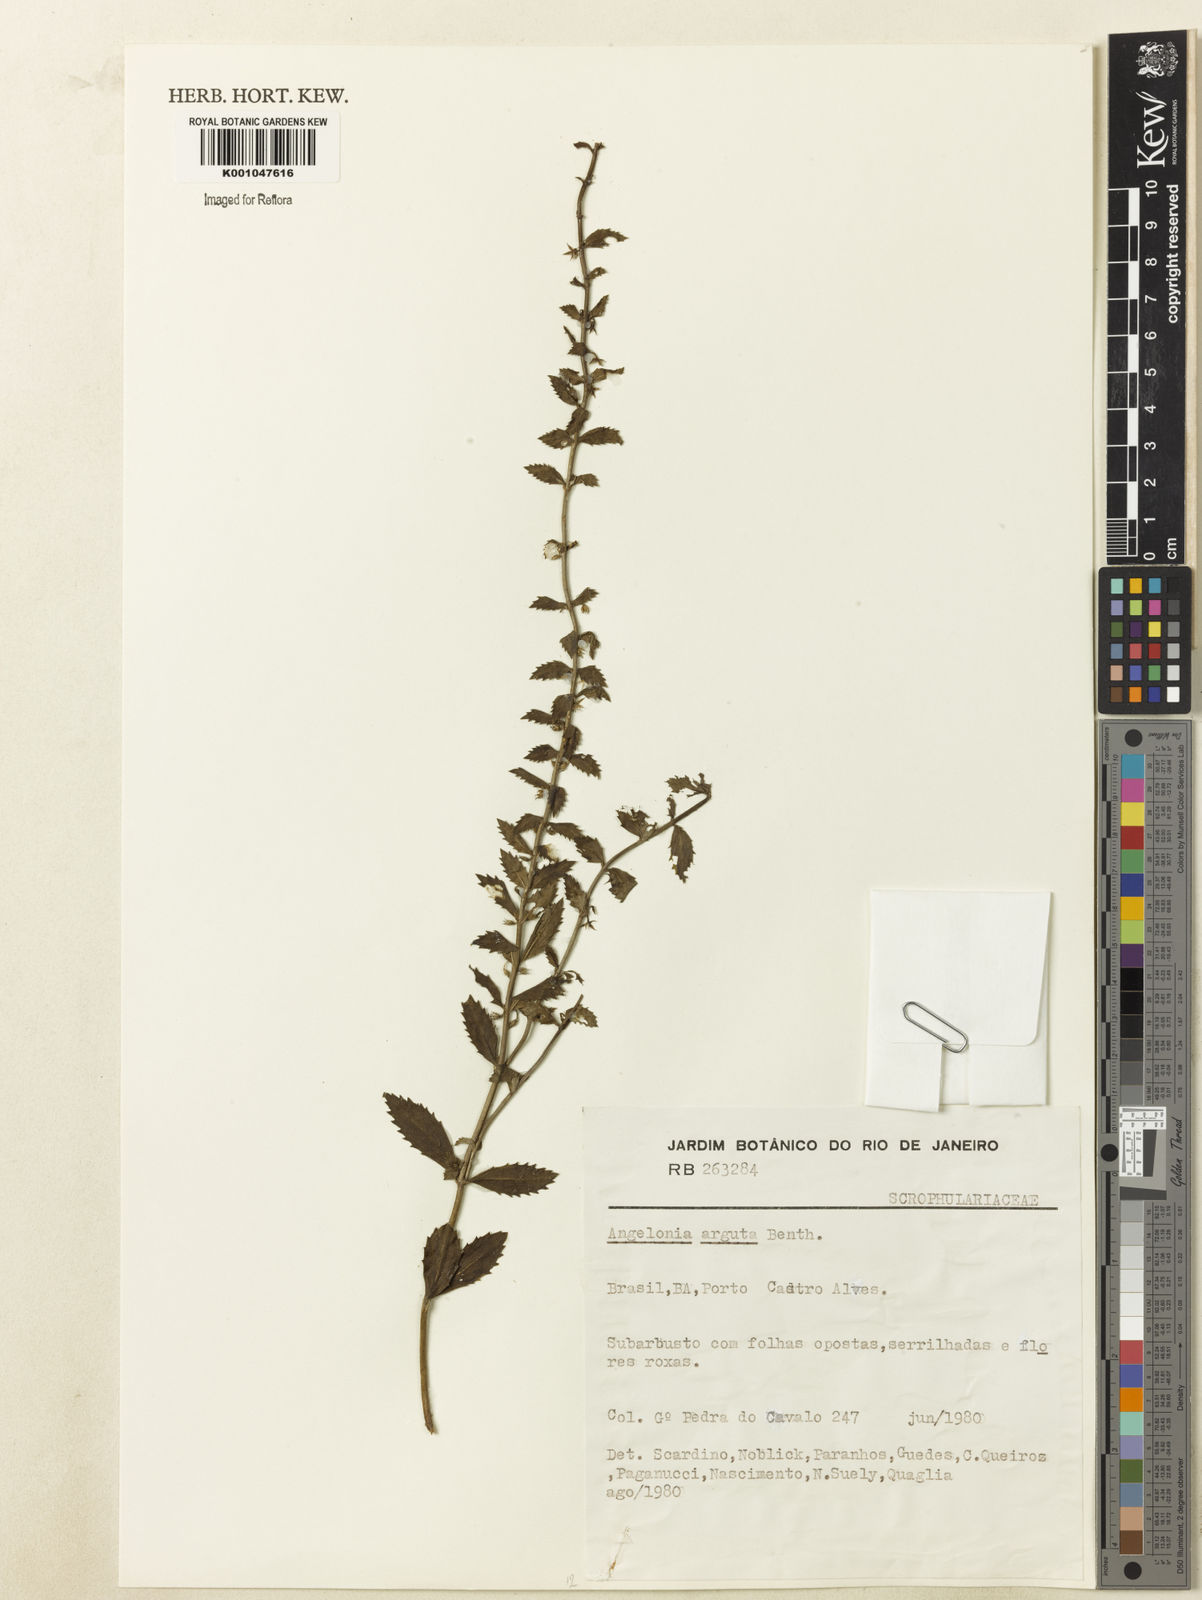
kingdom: Plantae
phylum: Tracheophyta
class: Magnoliopsida
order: Lamiales
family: Plantaginaceae
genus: Angelonia
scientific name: Angelonia arguta
